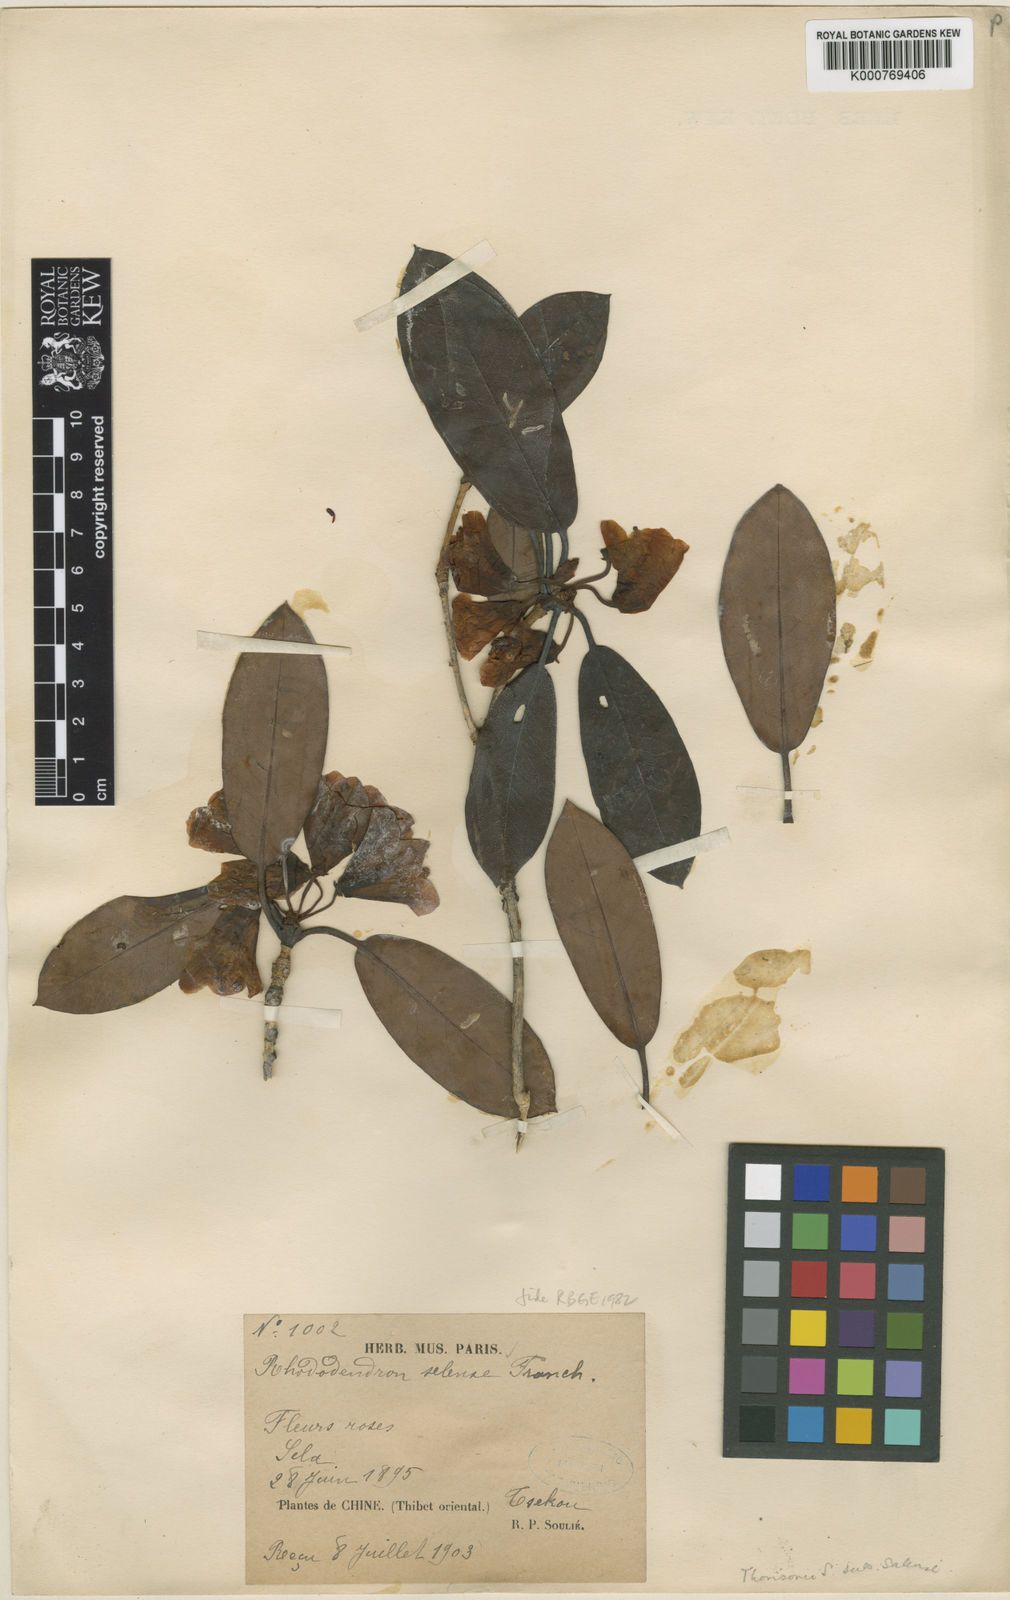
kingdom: Plantae
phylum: Tracheophyta
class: Magnoliopsida
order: Ericales
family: Ericaceae
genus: Rhododendron
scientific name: Rhododendron selense
